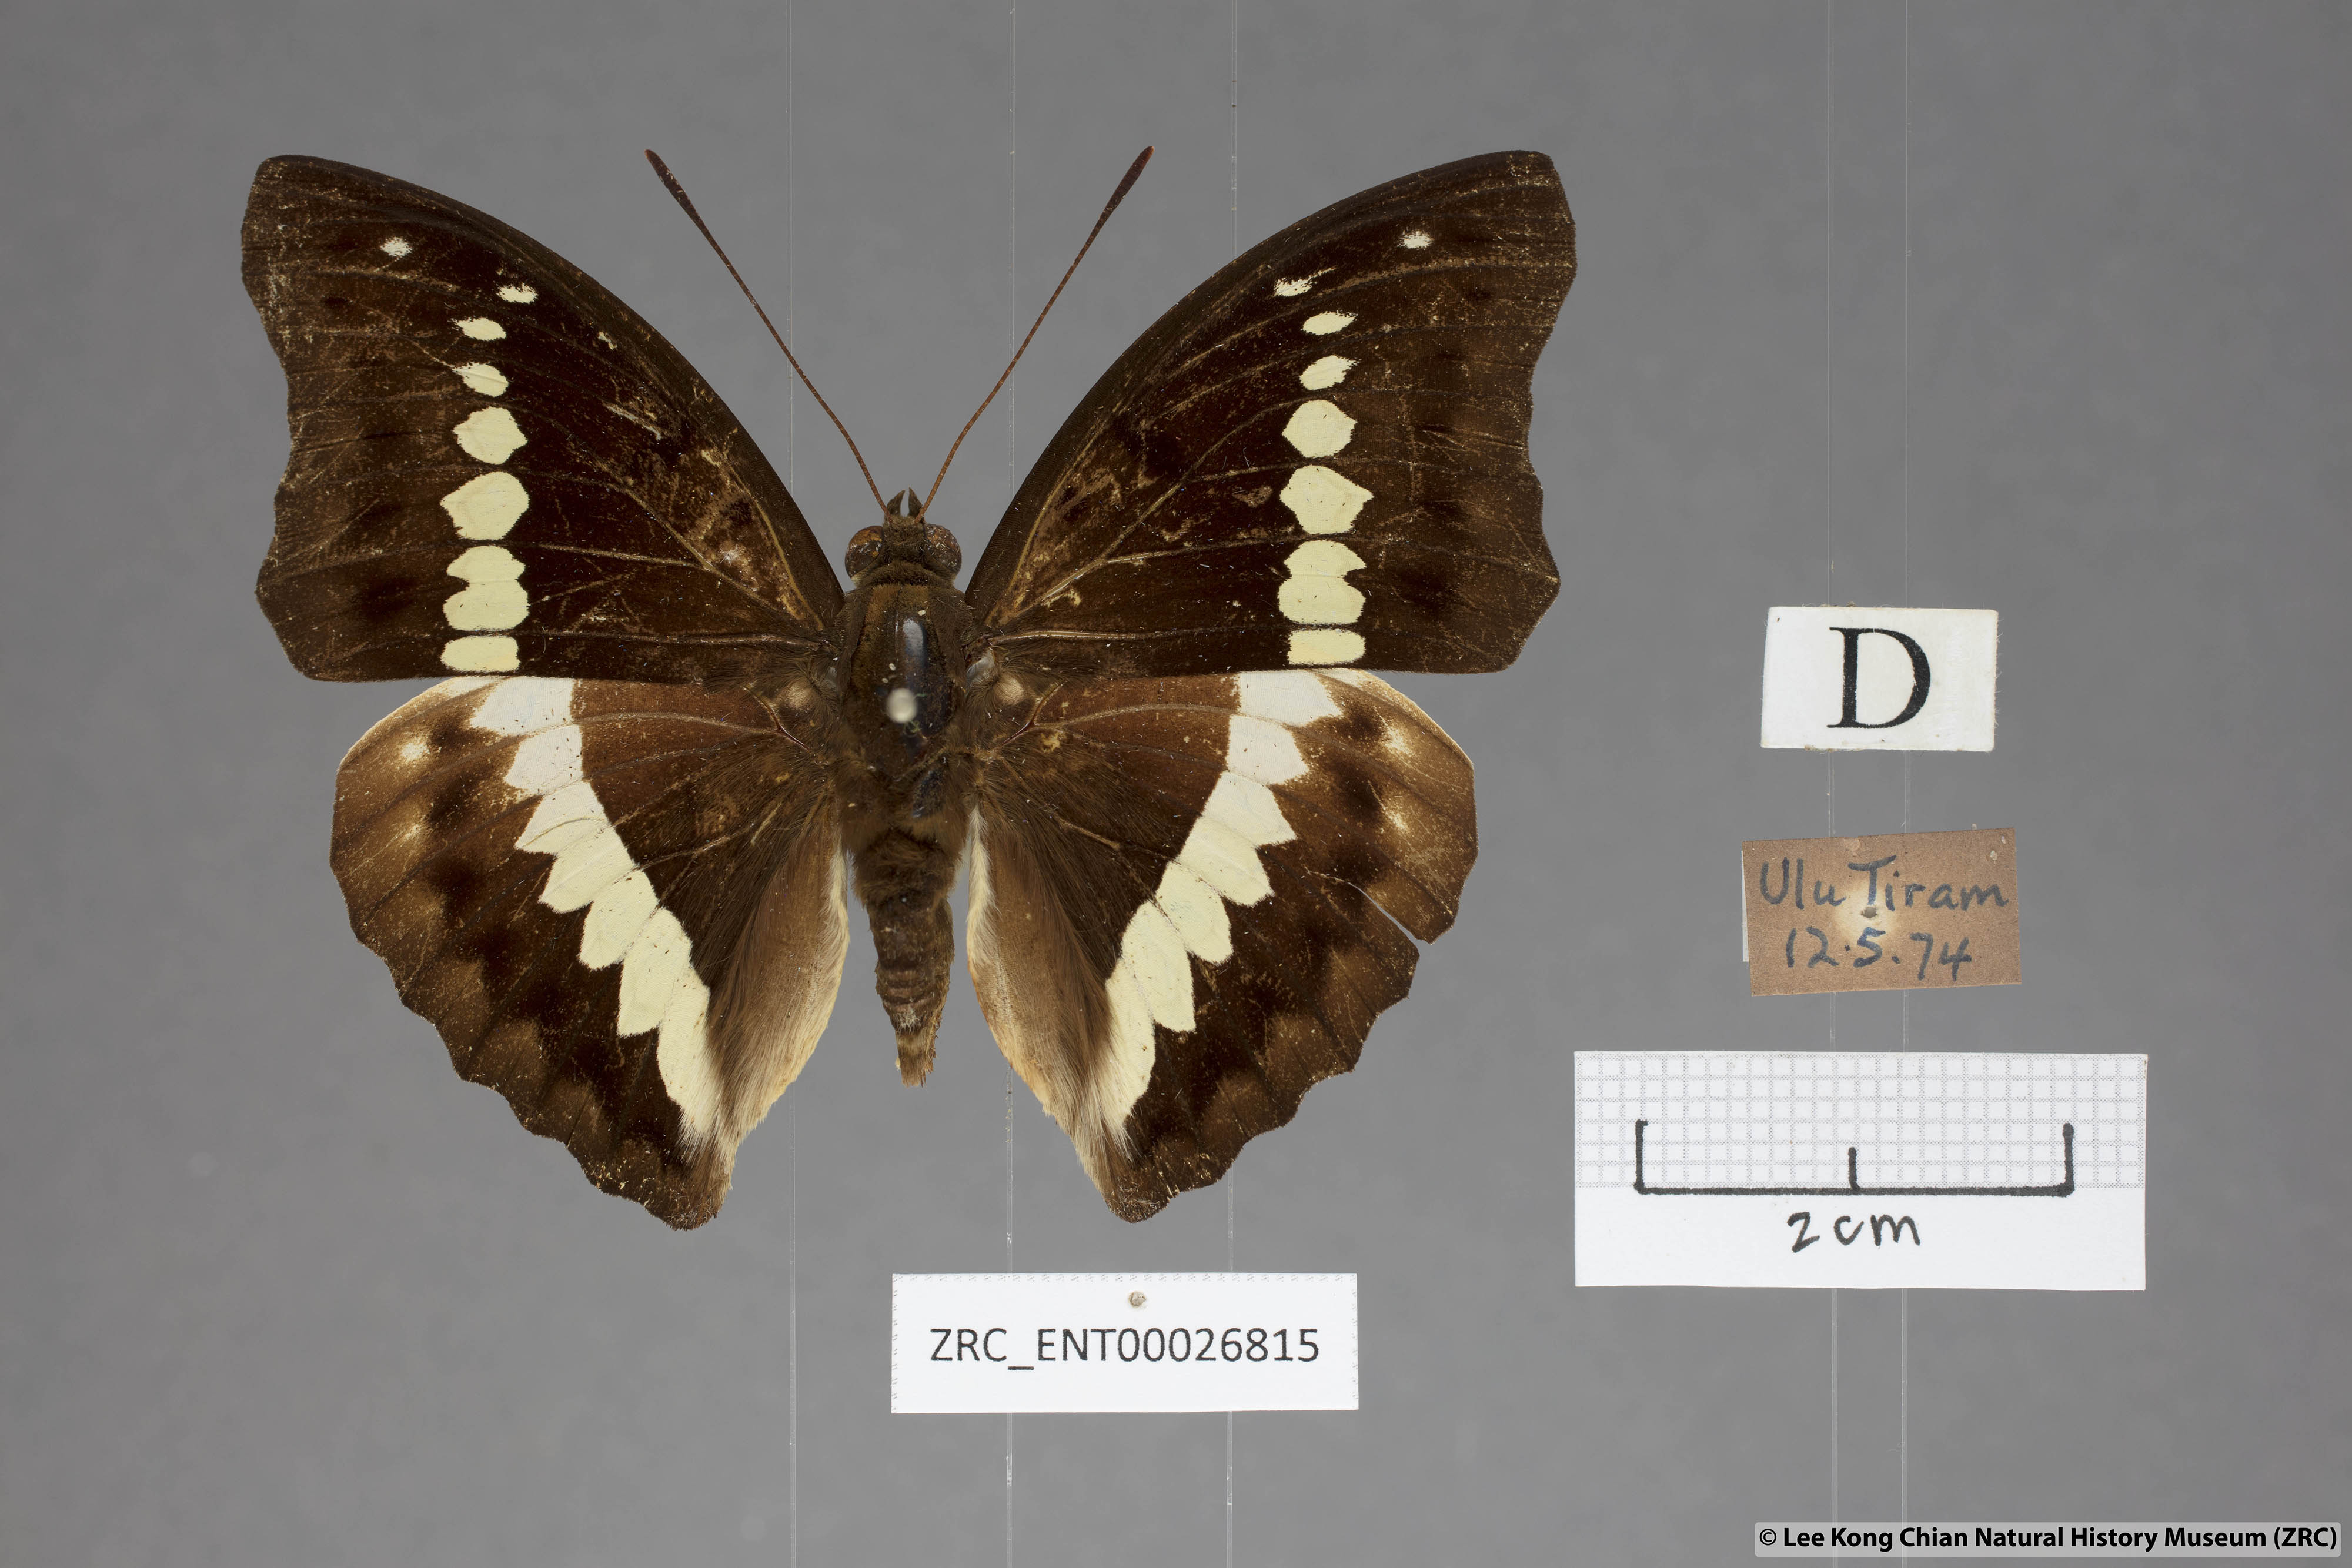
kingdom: Animalia
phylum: Arthropoda
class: Insecta
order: Lepidoptera
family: Nymphalidae
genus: Euthalia
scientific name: Euthalia Bassarona teuta
